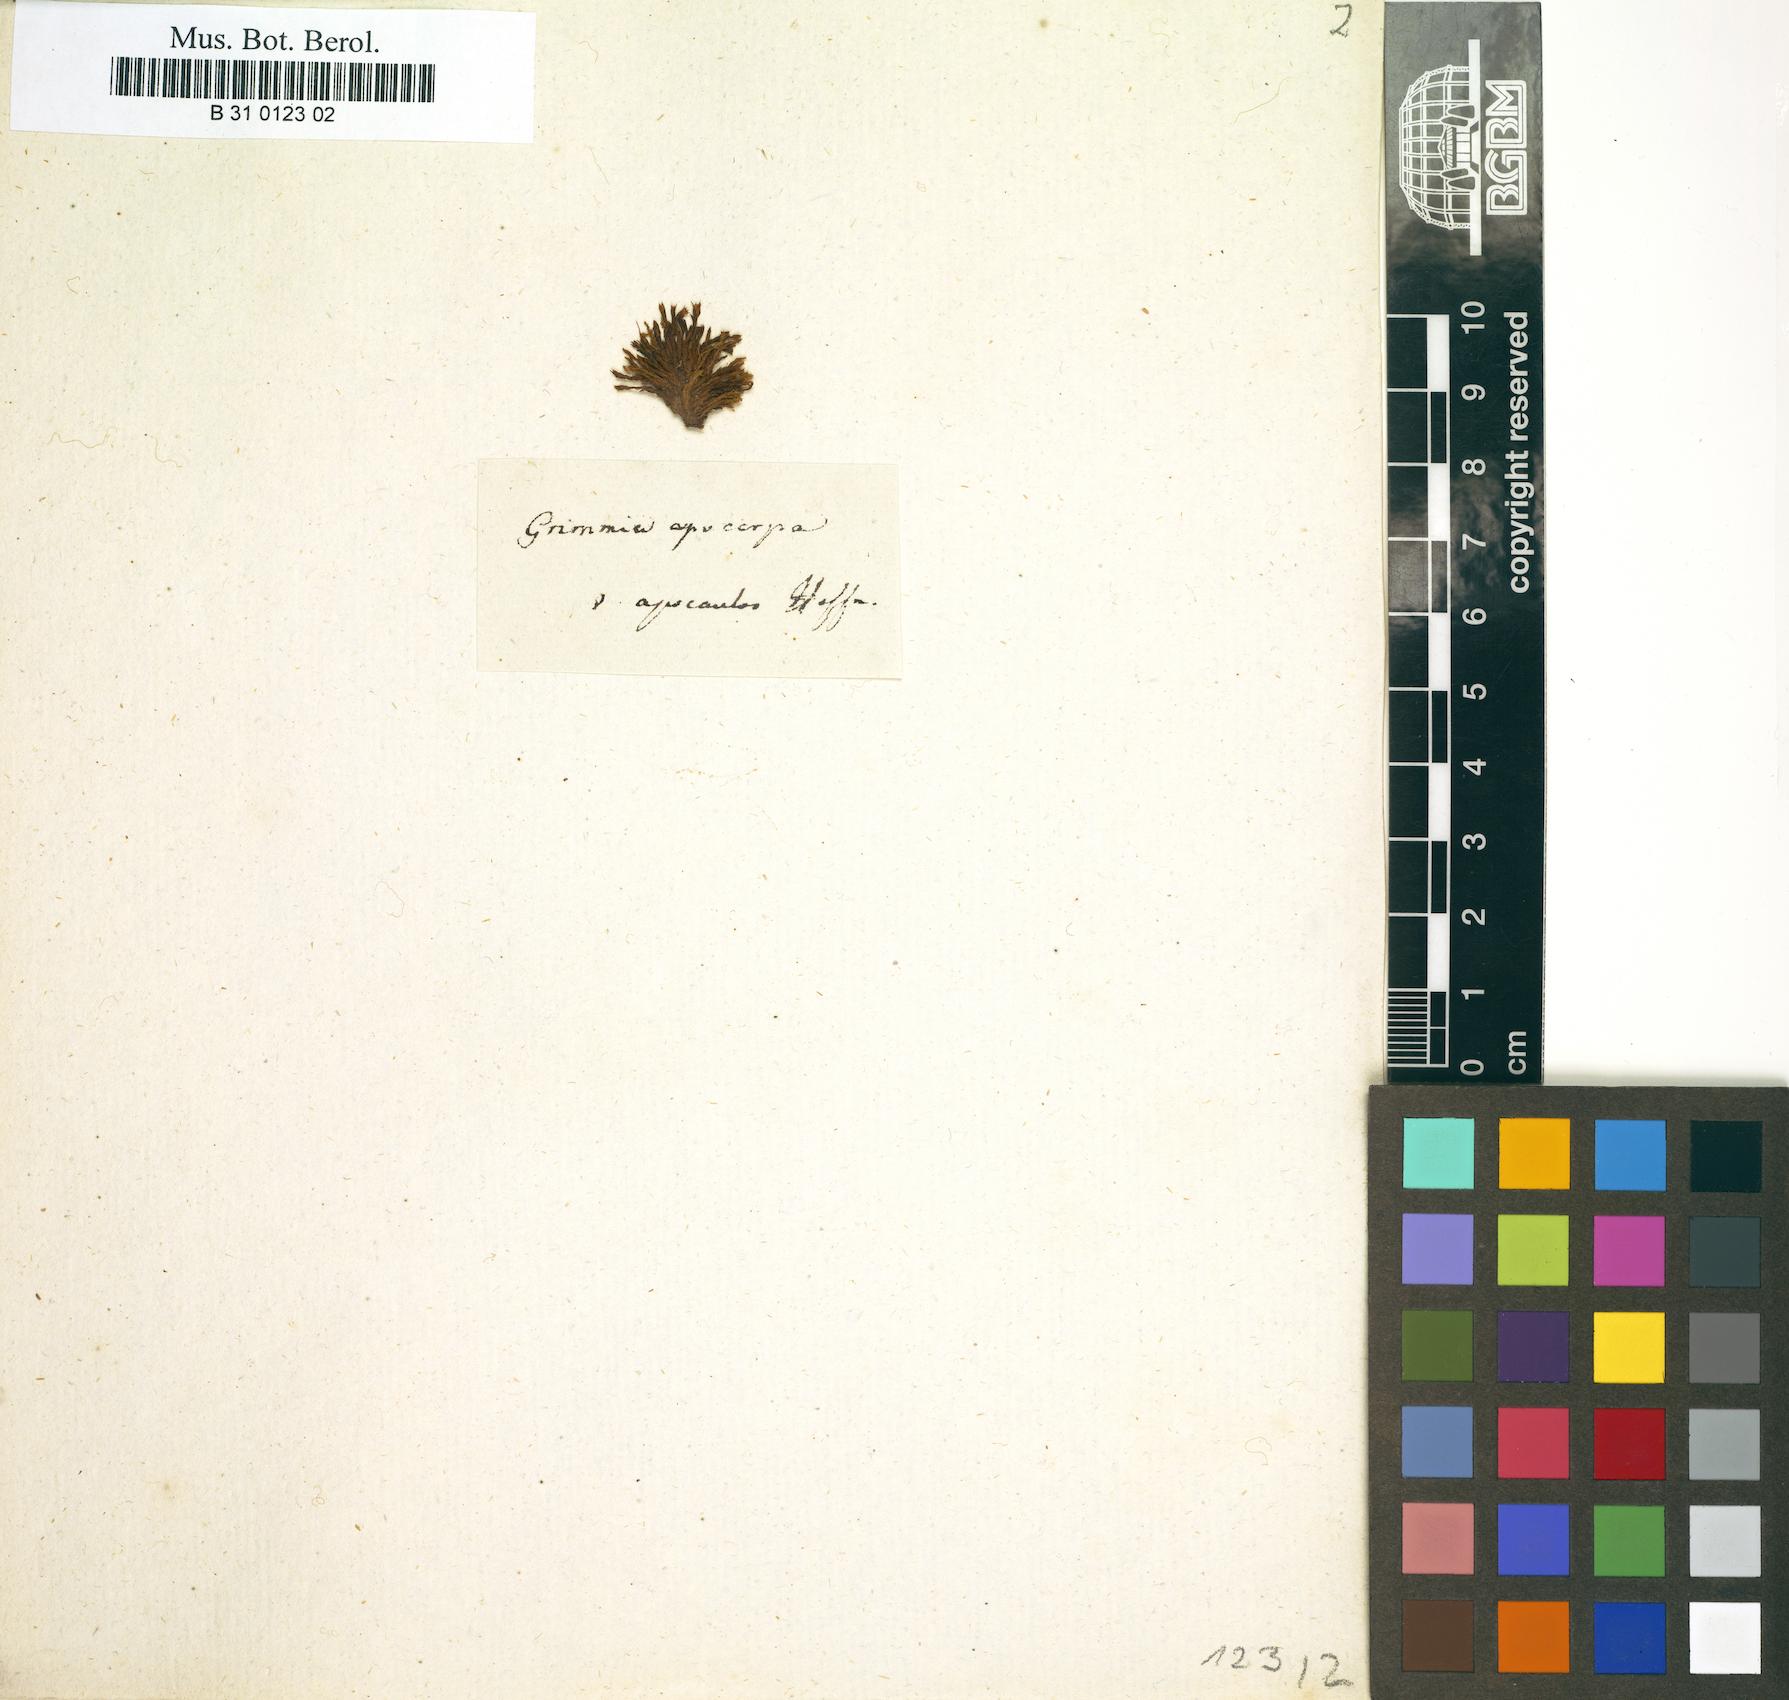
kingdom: Plantae
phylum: Bryophyta
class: Bryopsida
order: Grimmiales
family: Grimmiaceae
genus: Schistidium
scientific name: Schistidium apocarpum
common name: Radiate bloom moss
